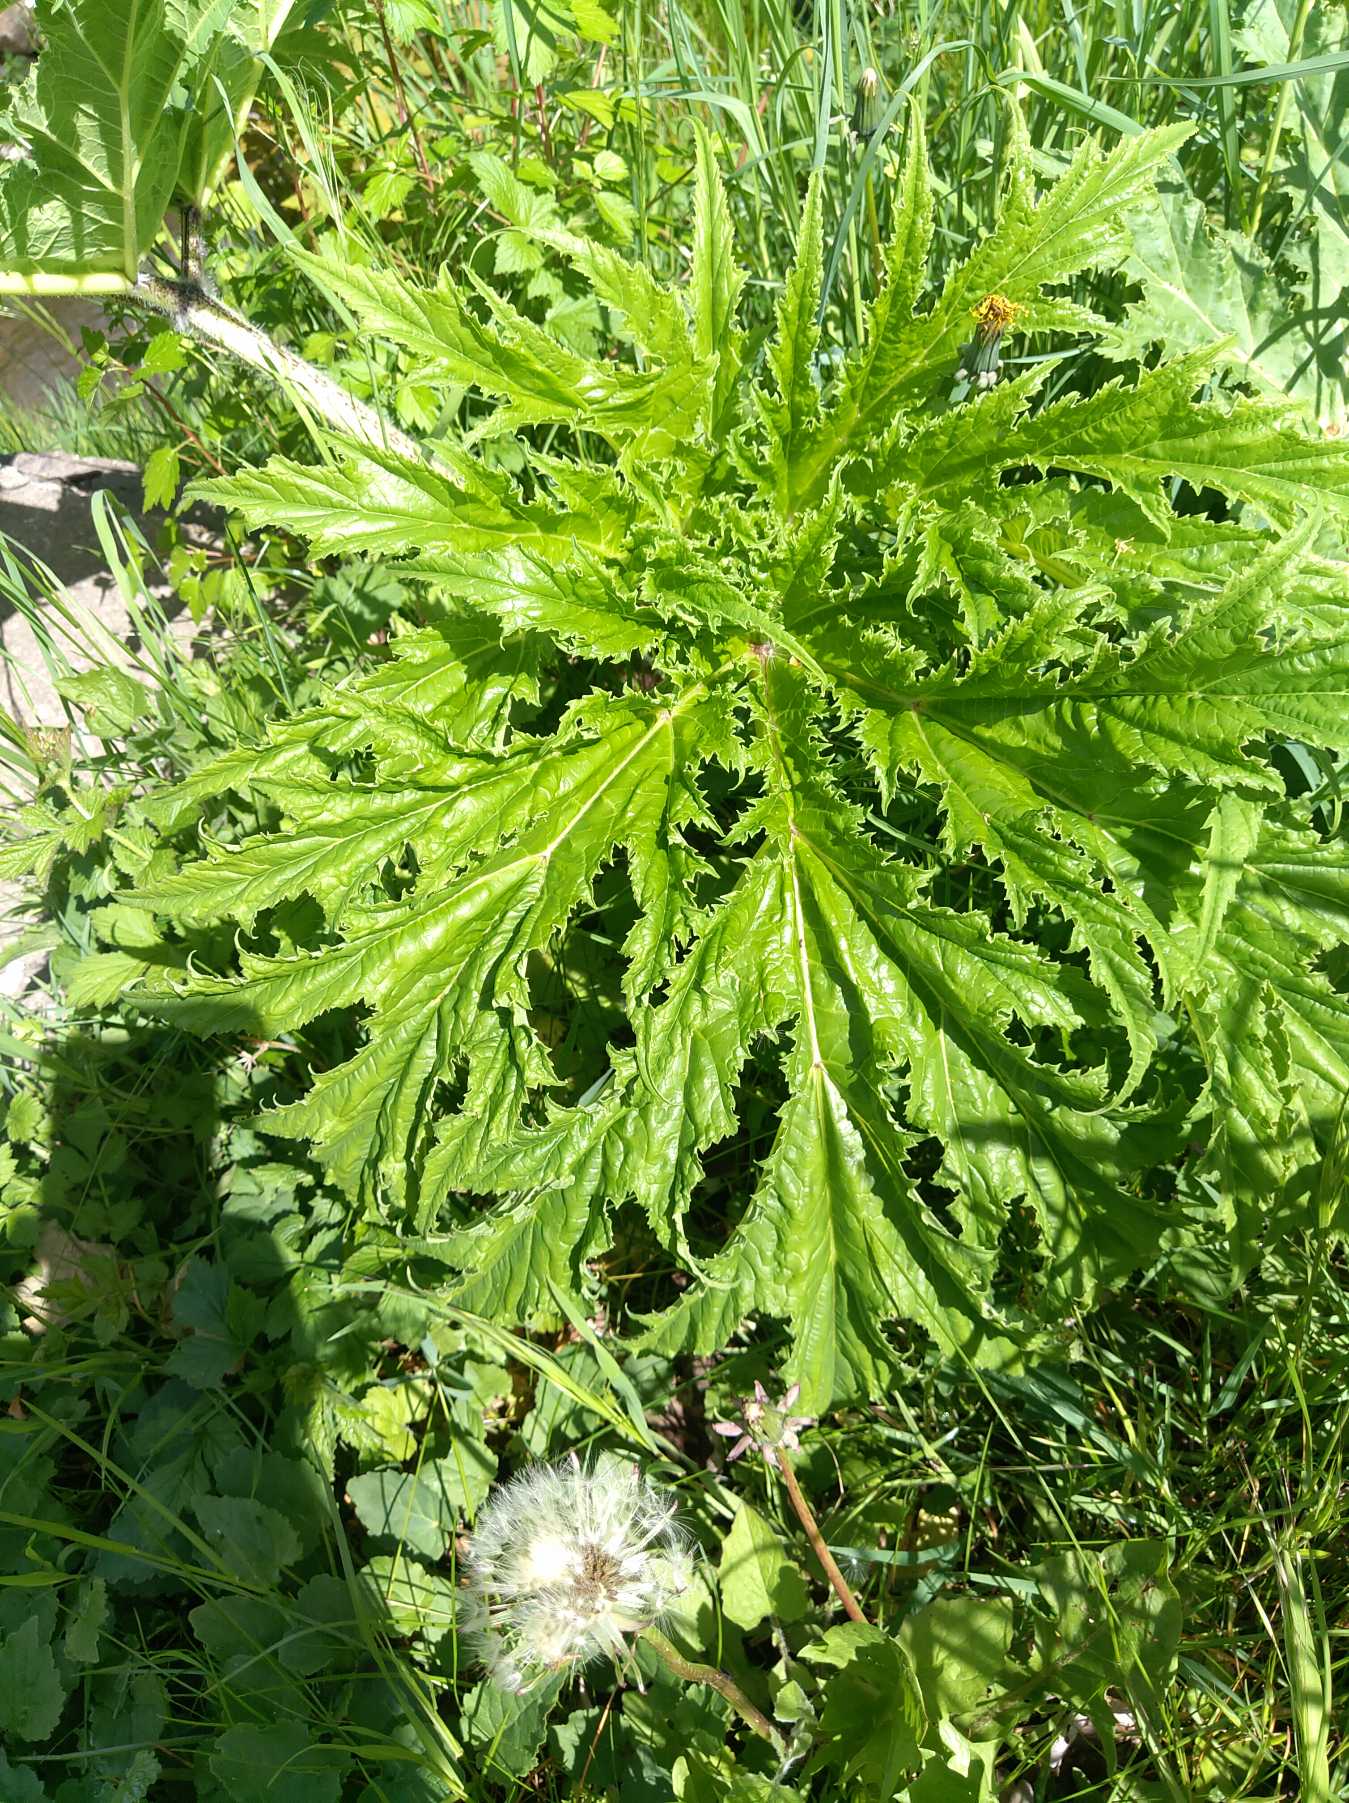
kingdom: Plantae
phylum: Tracheophyta
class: Magnoliopsida
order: Apiales
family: Apiaceae
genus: Heracleum
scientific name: Heracleum mantegazzianum
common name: Kæmpe-bjørneklo
